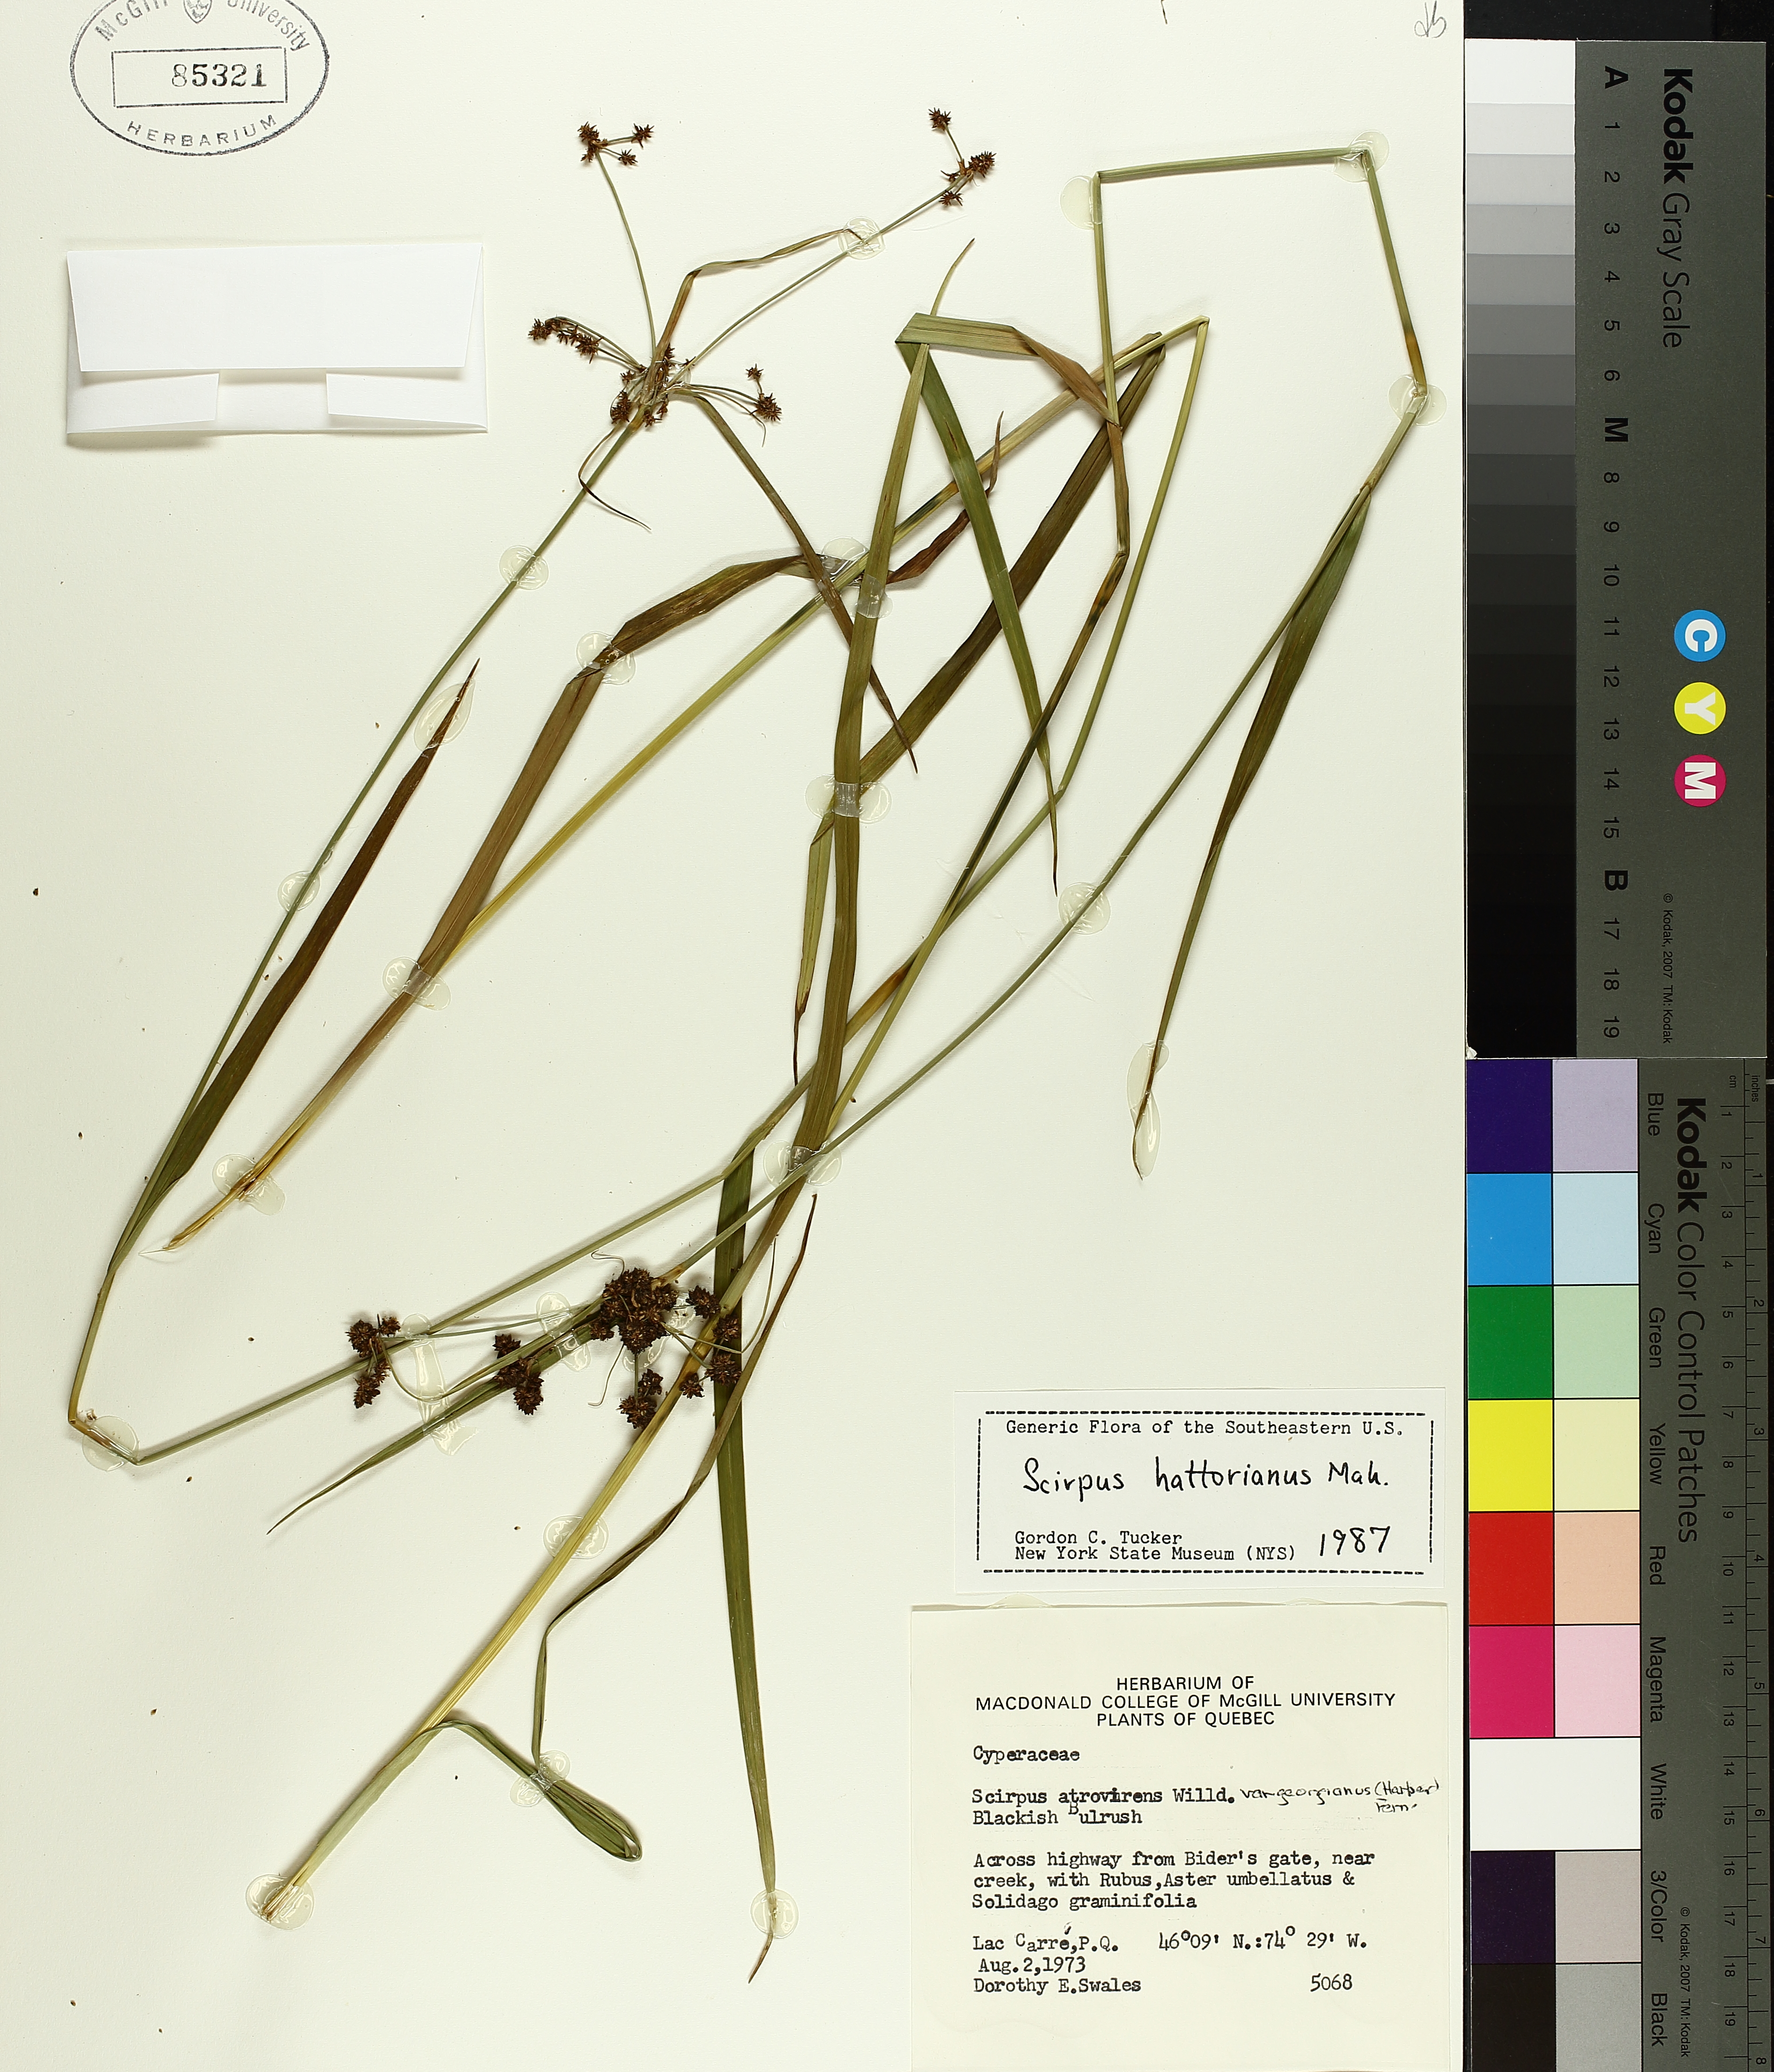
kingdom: Plantae
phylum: Tracheophyta
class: Liliopsida
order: Poales
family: Cyperaceae
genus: Scirpus
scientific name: Scirpus hattorianus
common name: Early dark-green bulrush
